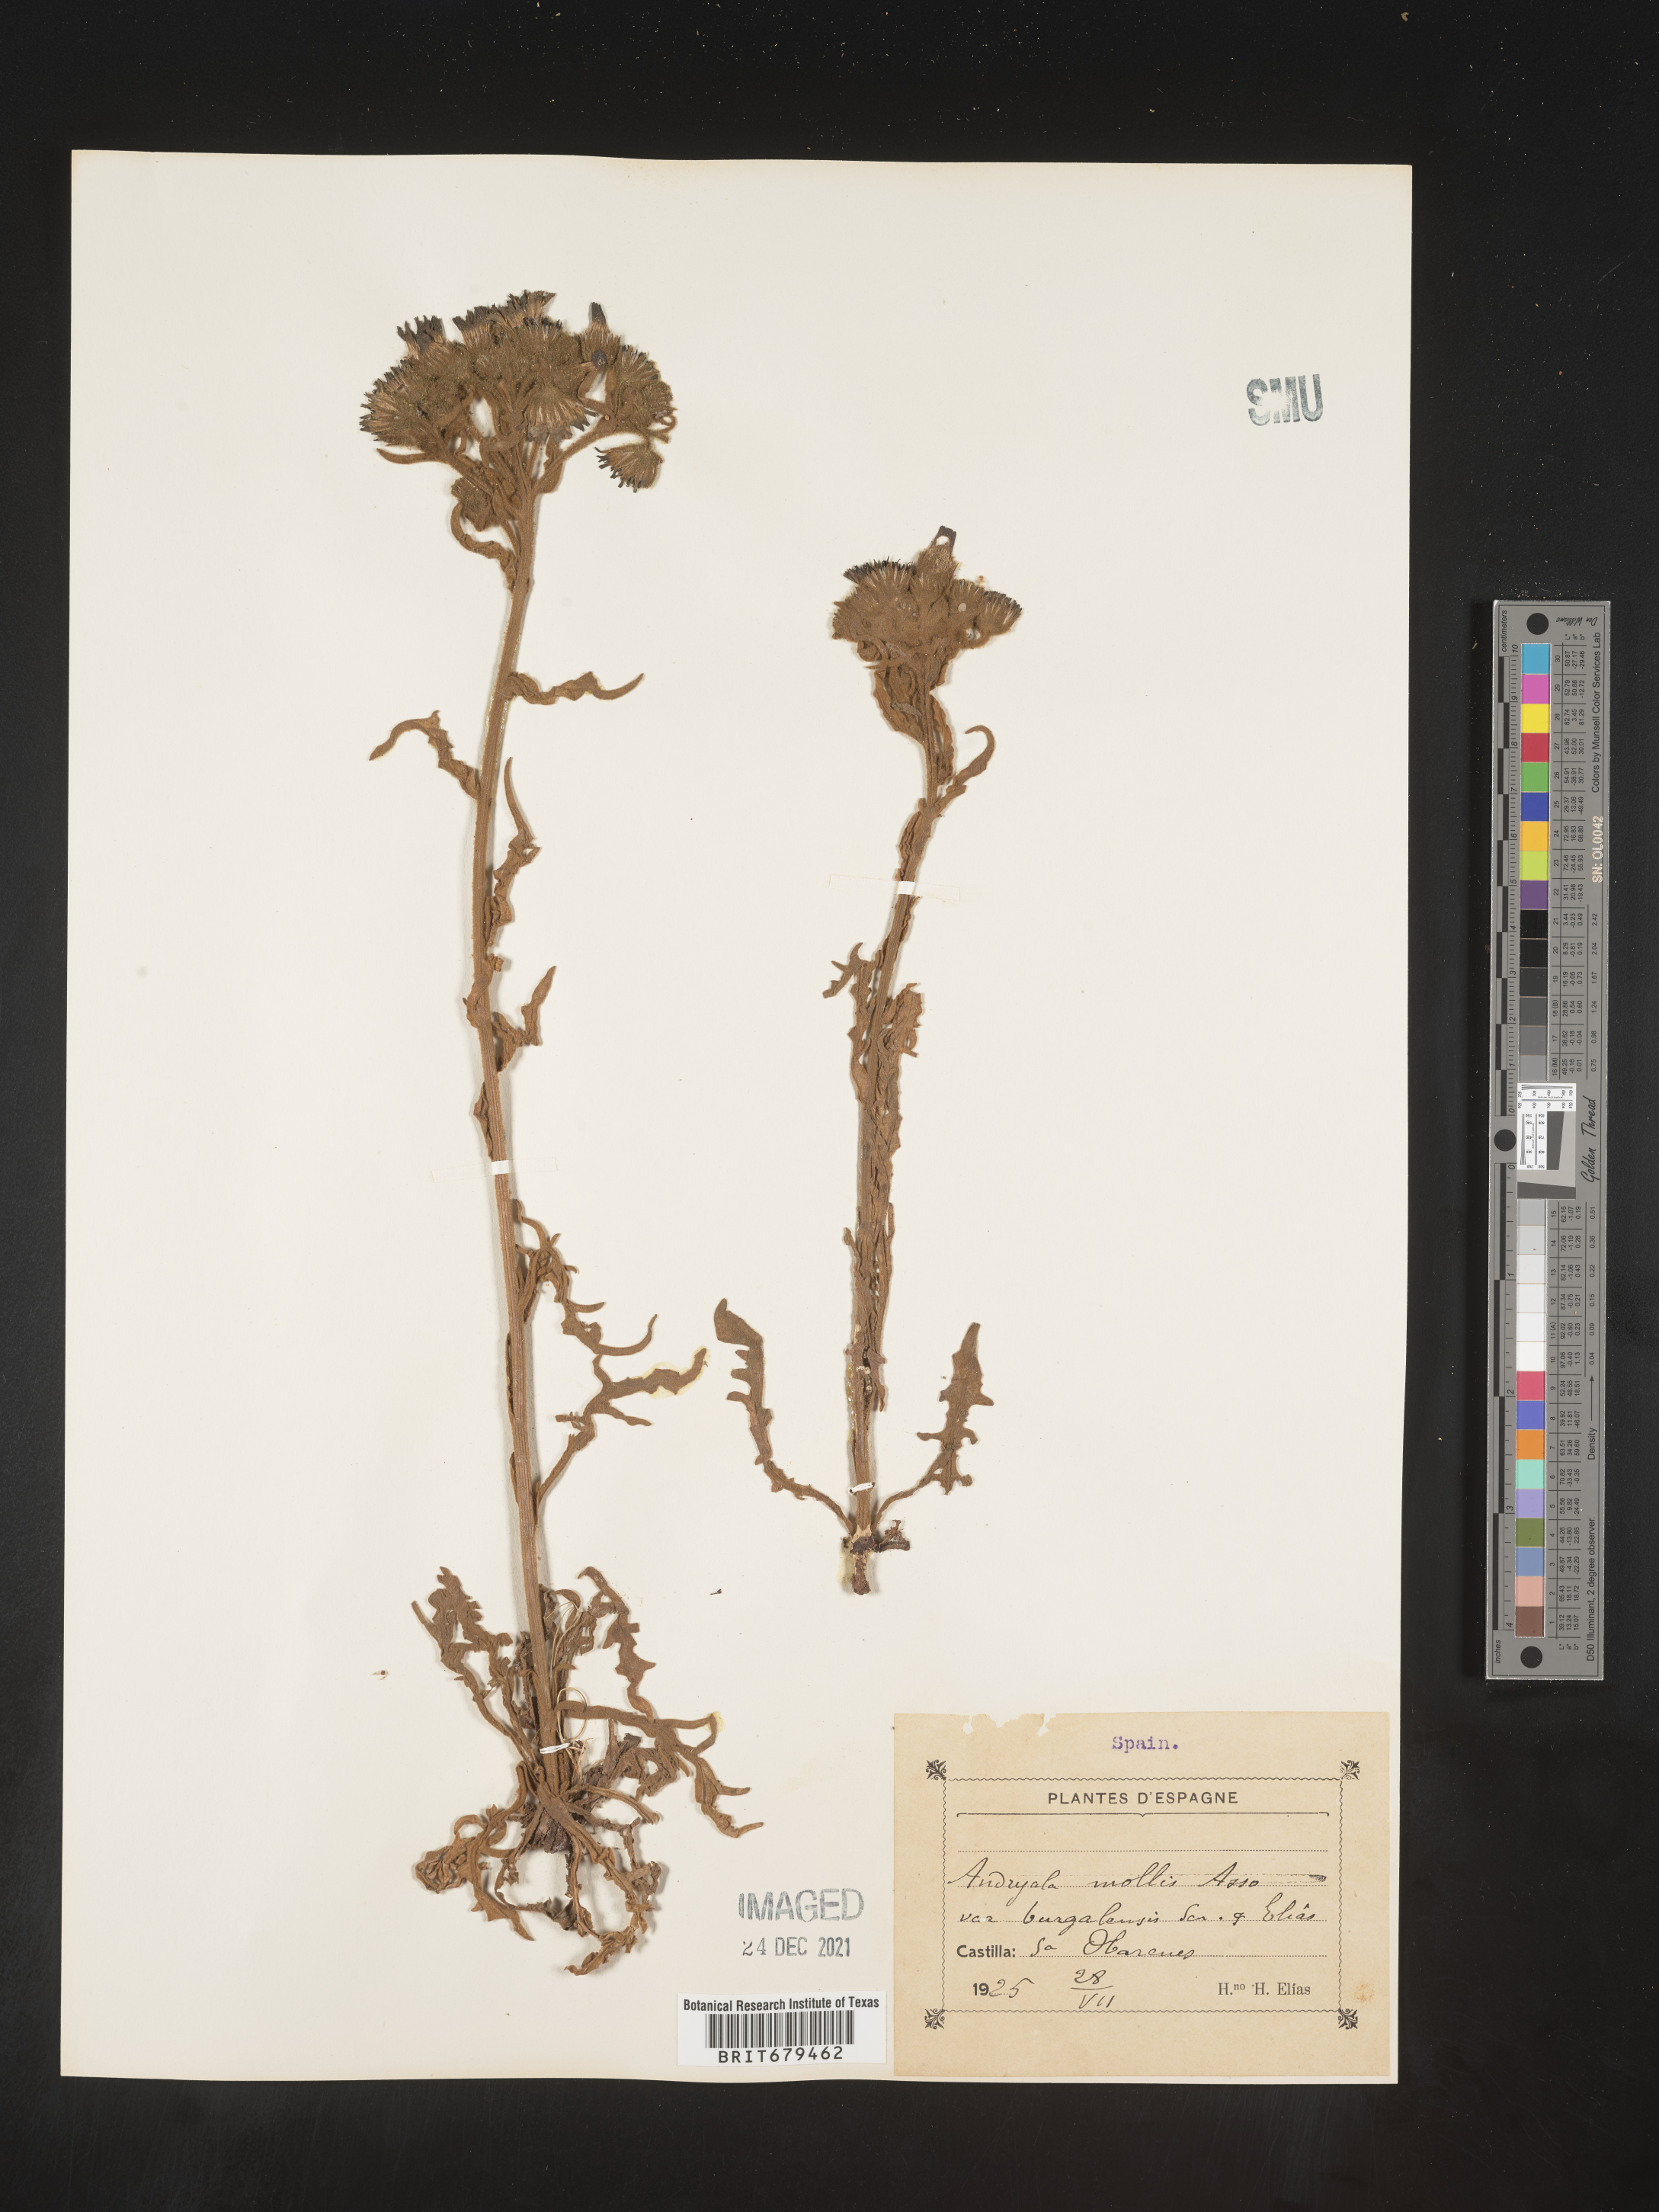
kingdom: Plantae
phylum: Tracheophyta
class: Magnoliopsida
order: Asterales
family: Asteraceae
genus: Andryala
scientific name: Andryala
